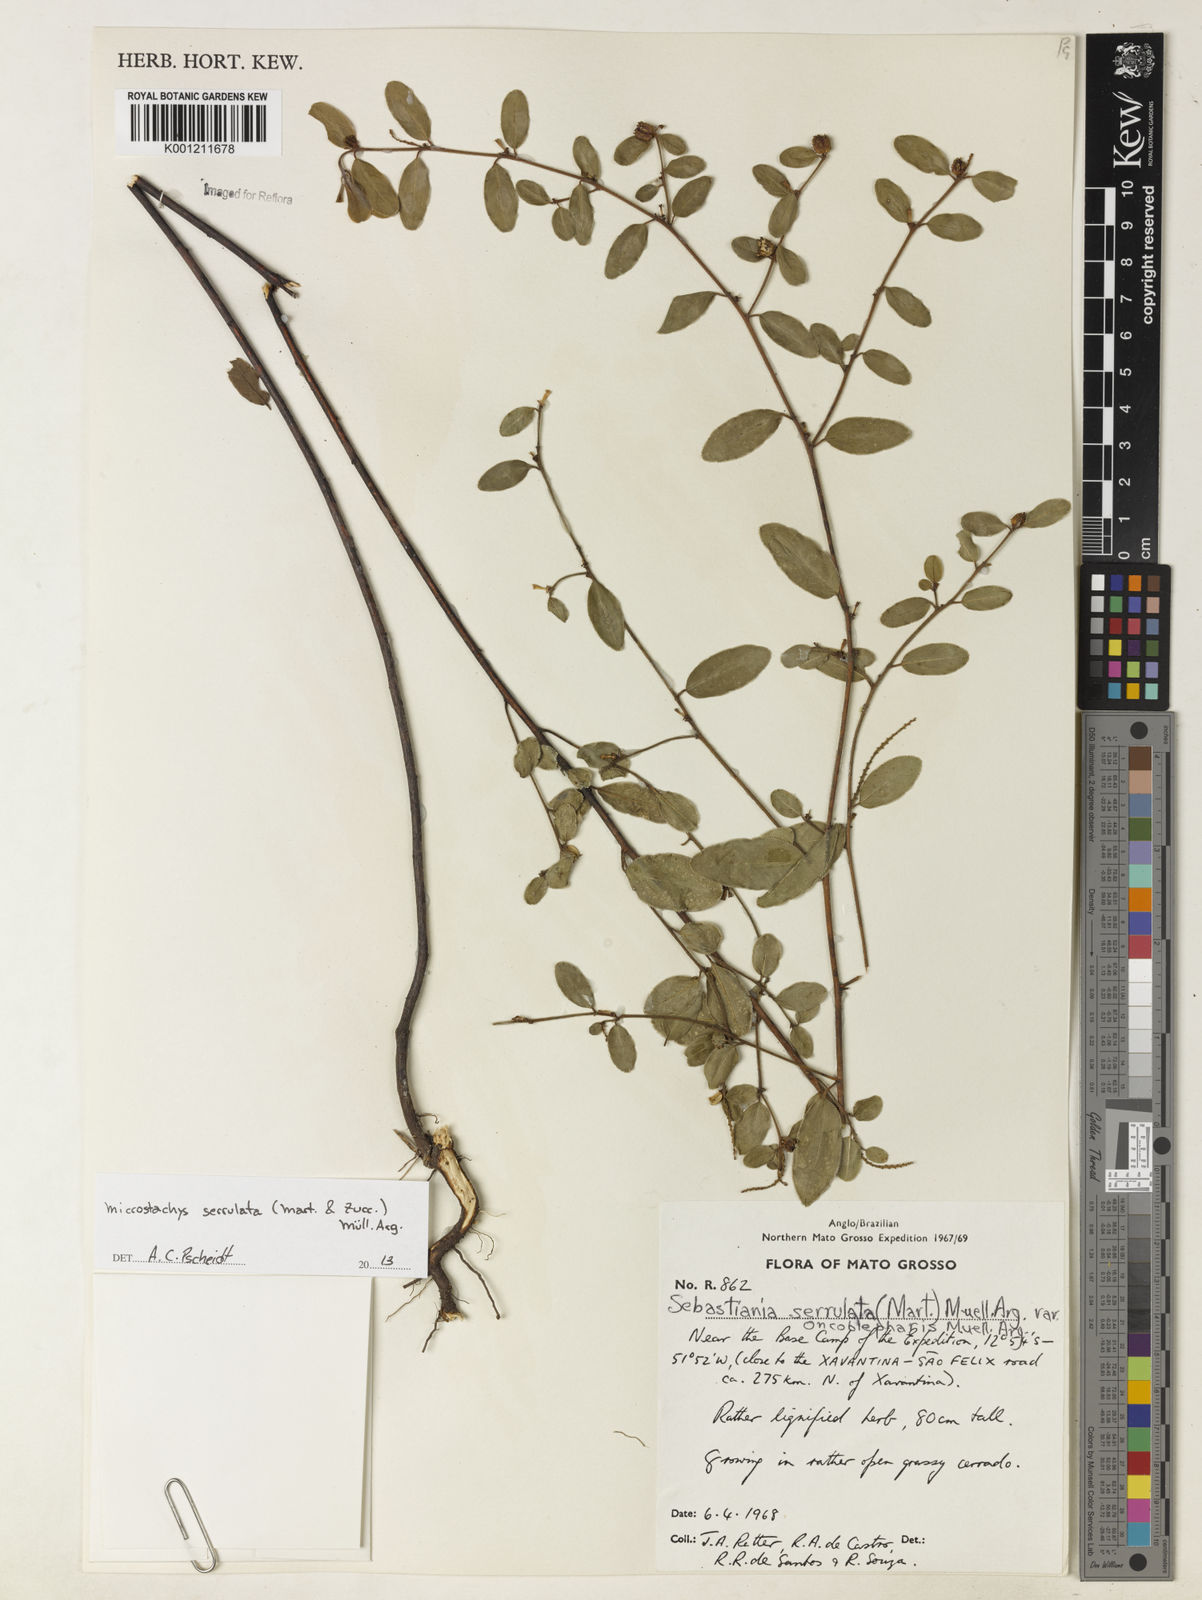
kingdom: Plantae
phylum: Tracheophyta
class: Magnoliopsida
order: Malpighiales
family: Euphorbiaceae
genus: Microstachys
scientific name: Microstachys
